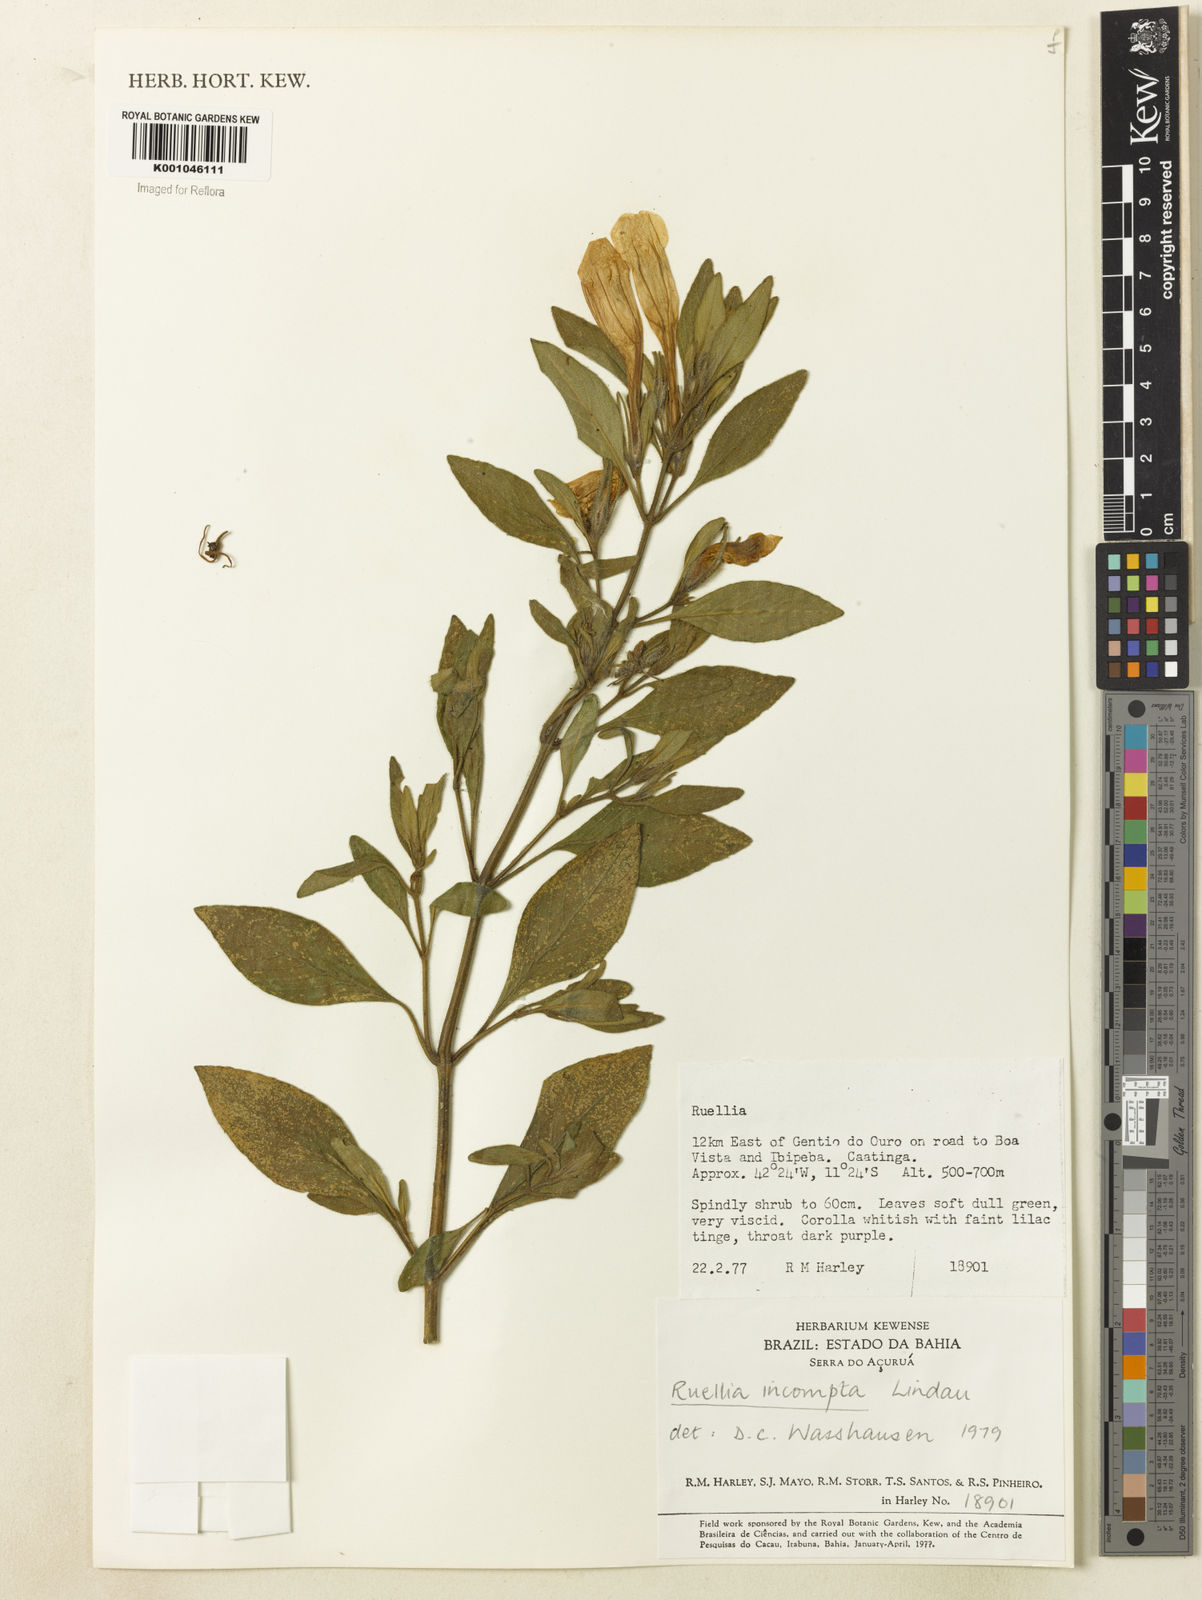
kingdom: Plantae
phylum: Tracheophyta
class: Magnoliopsida
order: Lamiales
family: Acanthaceae
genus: Ruellia
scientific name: Ruellia
